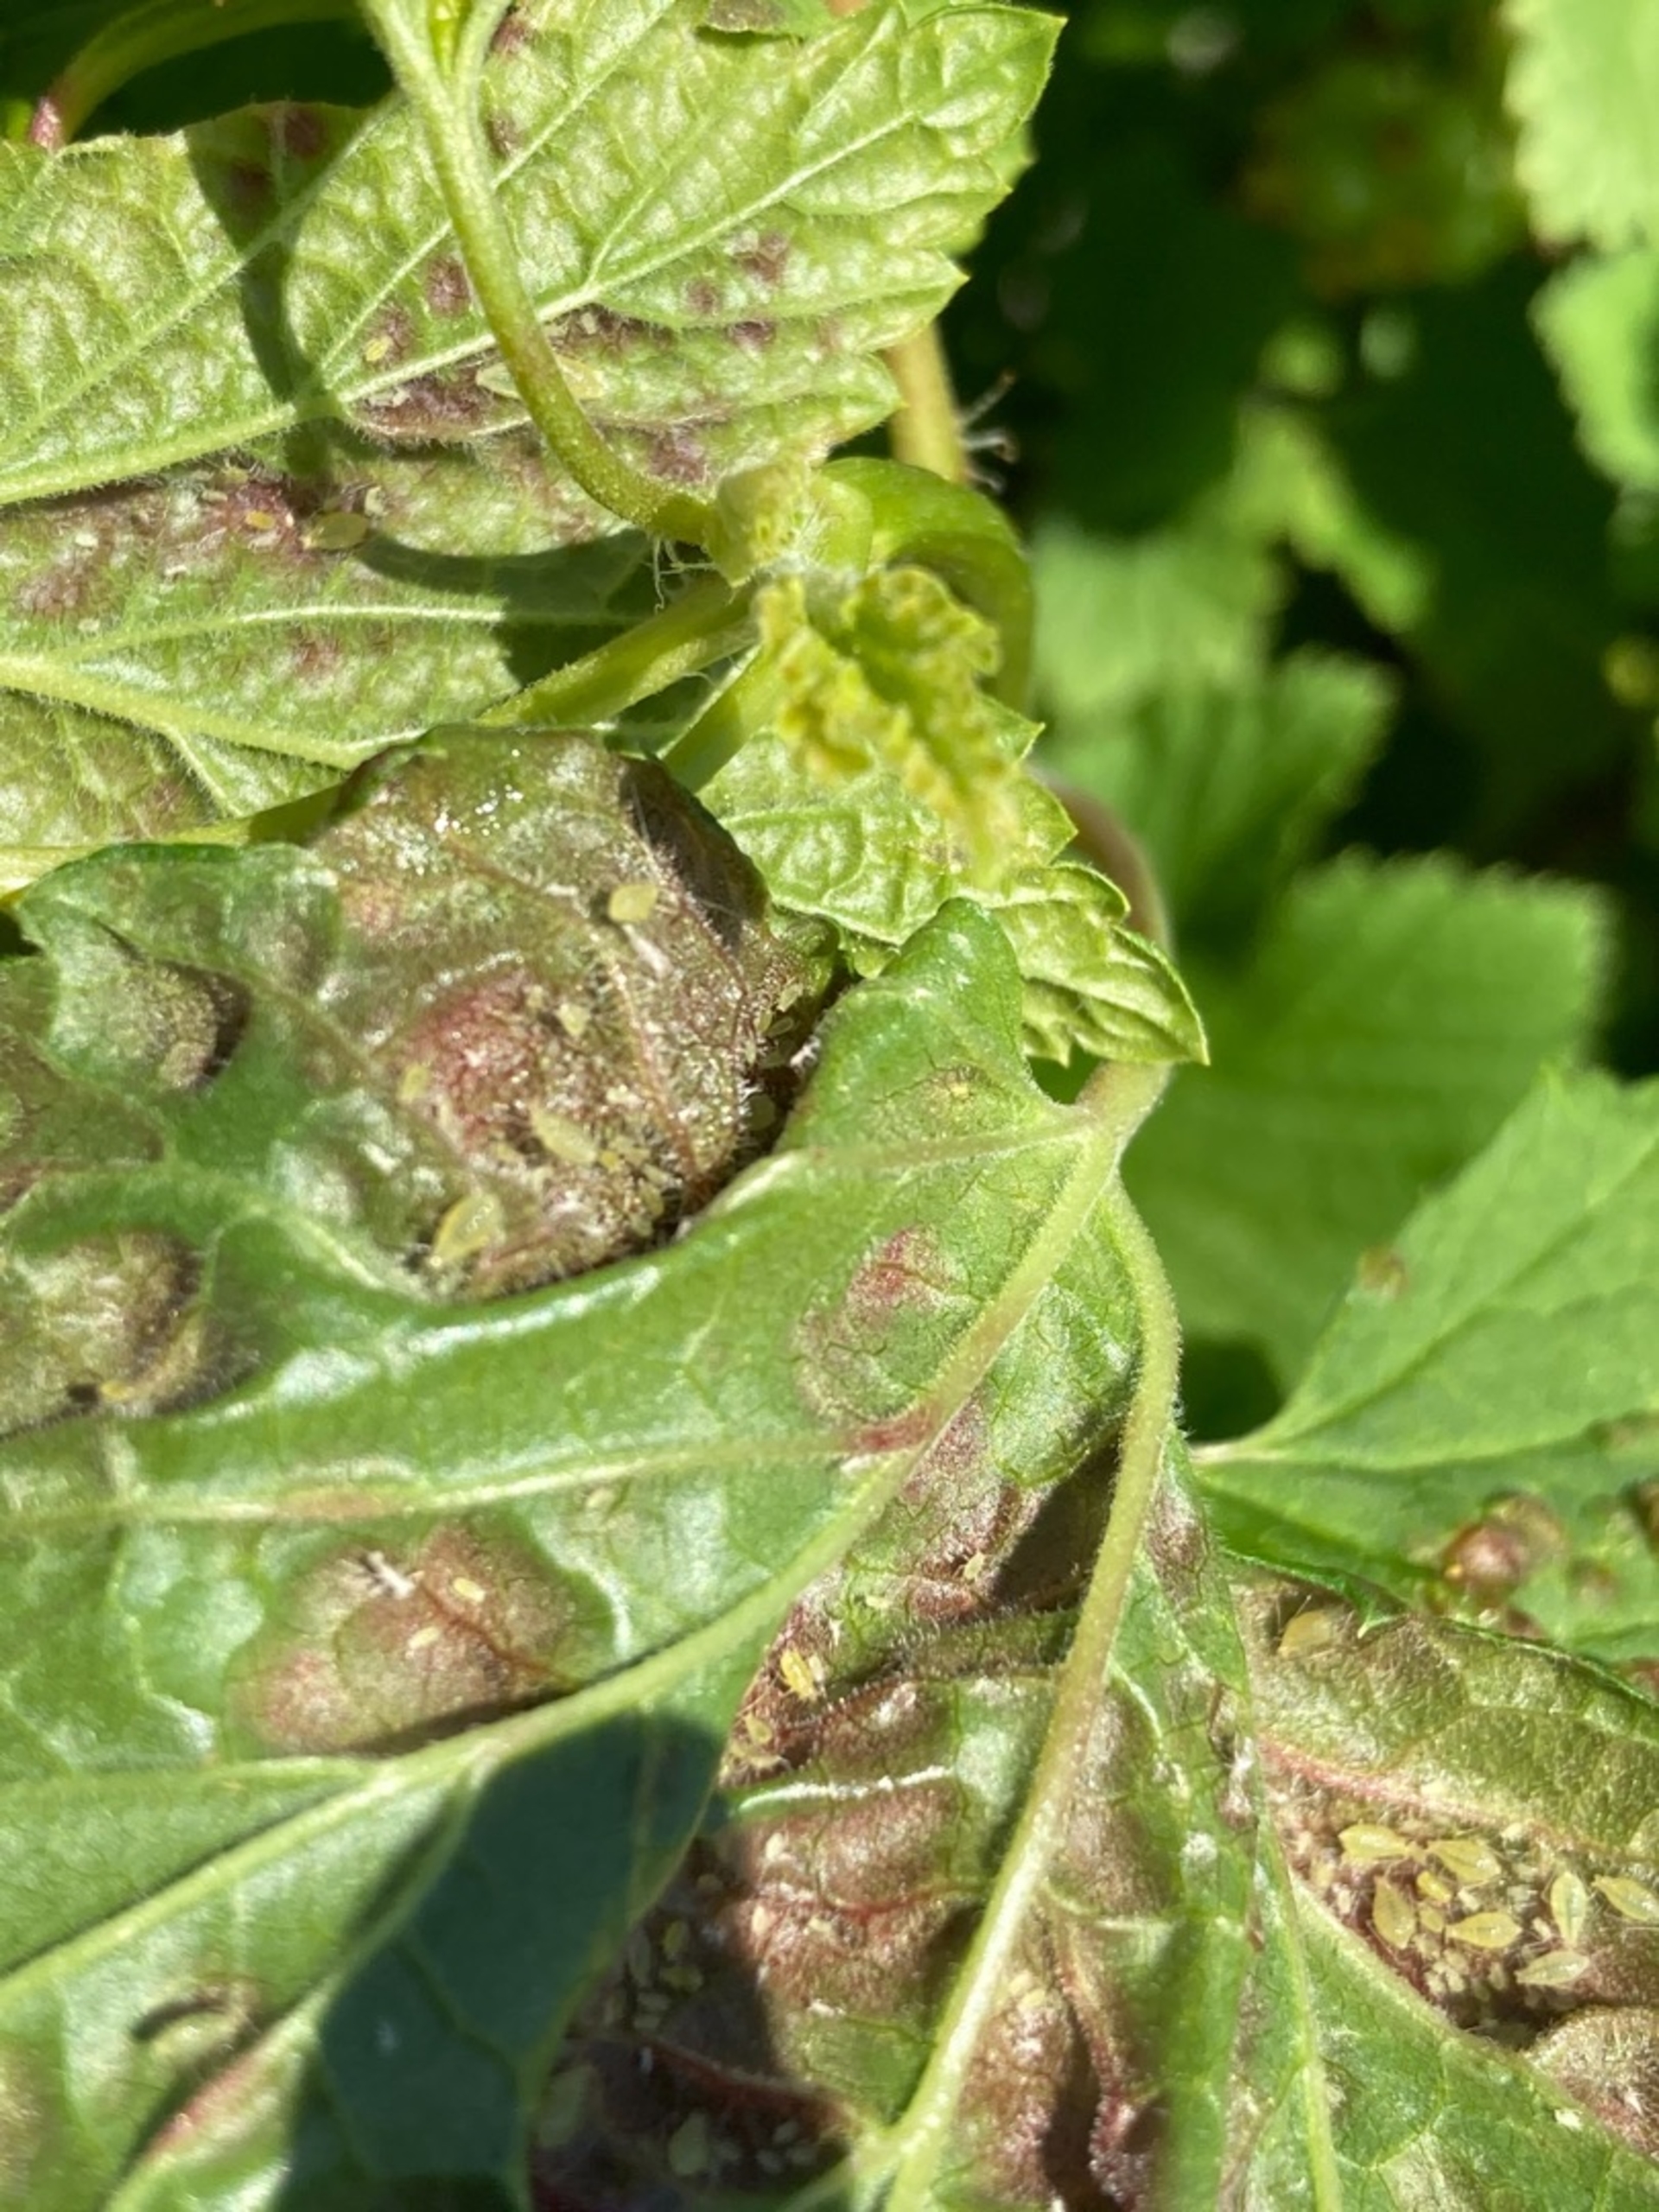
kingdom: Animalia
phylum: Arthropoda
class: Insecta
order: Hemiptera
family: Aphididae
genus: Cryptomyzus
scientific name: Cryptomyzus ribis
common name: Ribsbladlus
